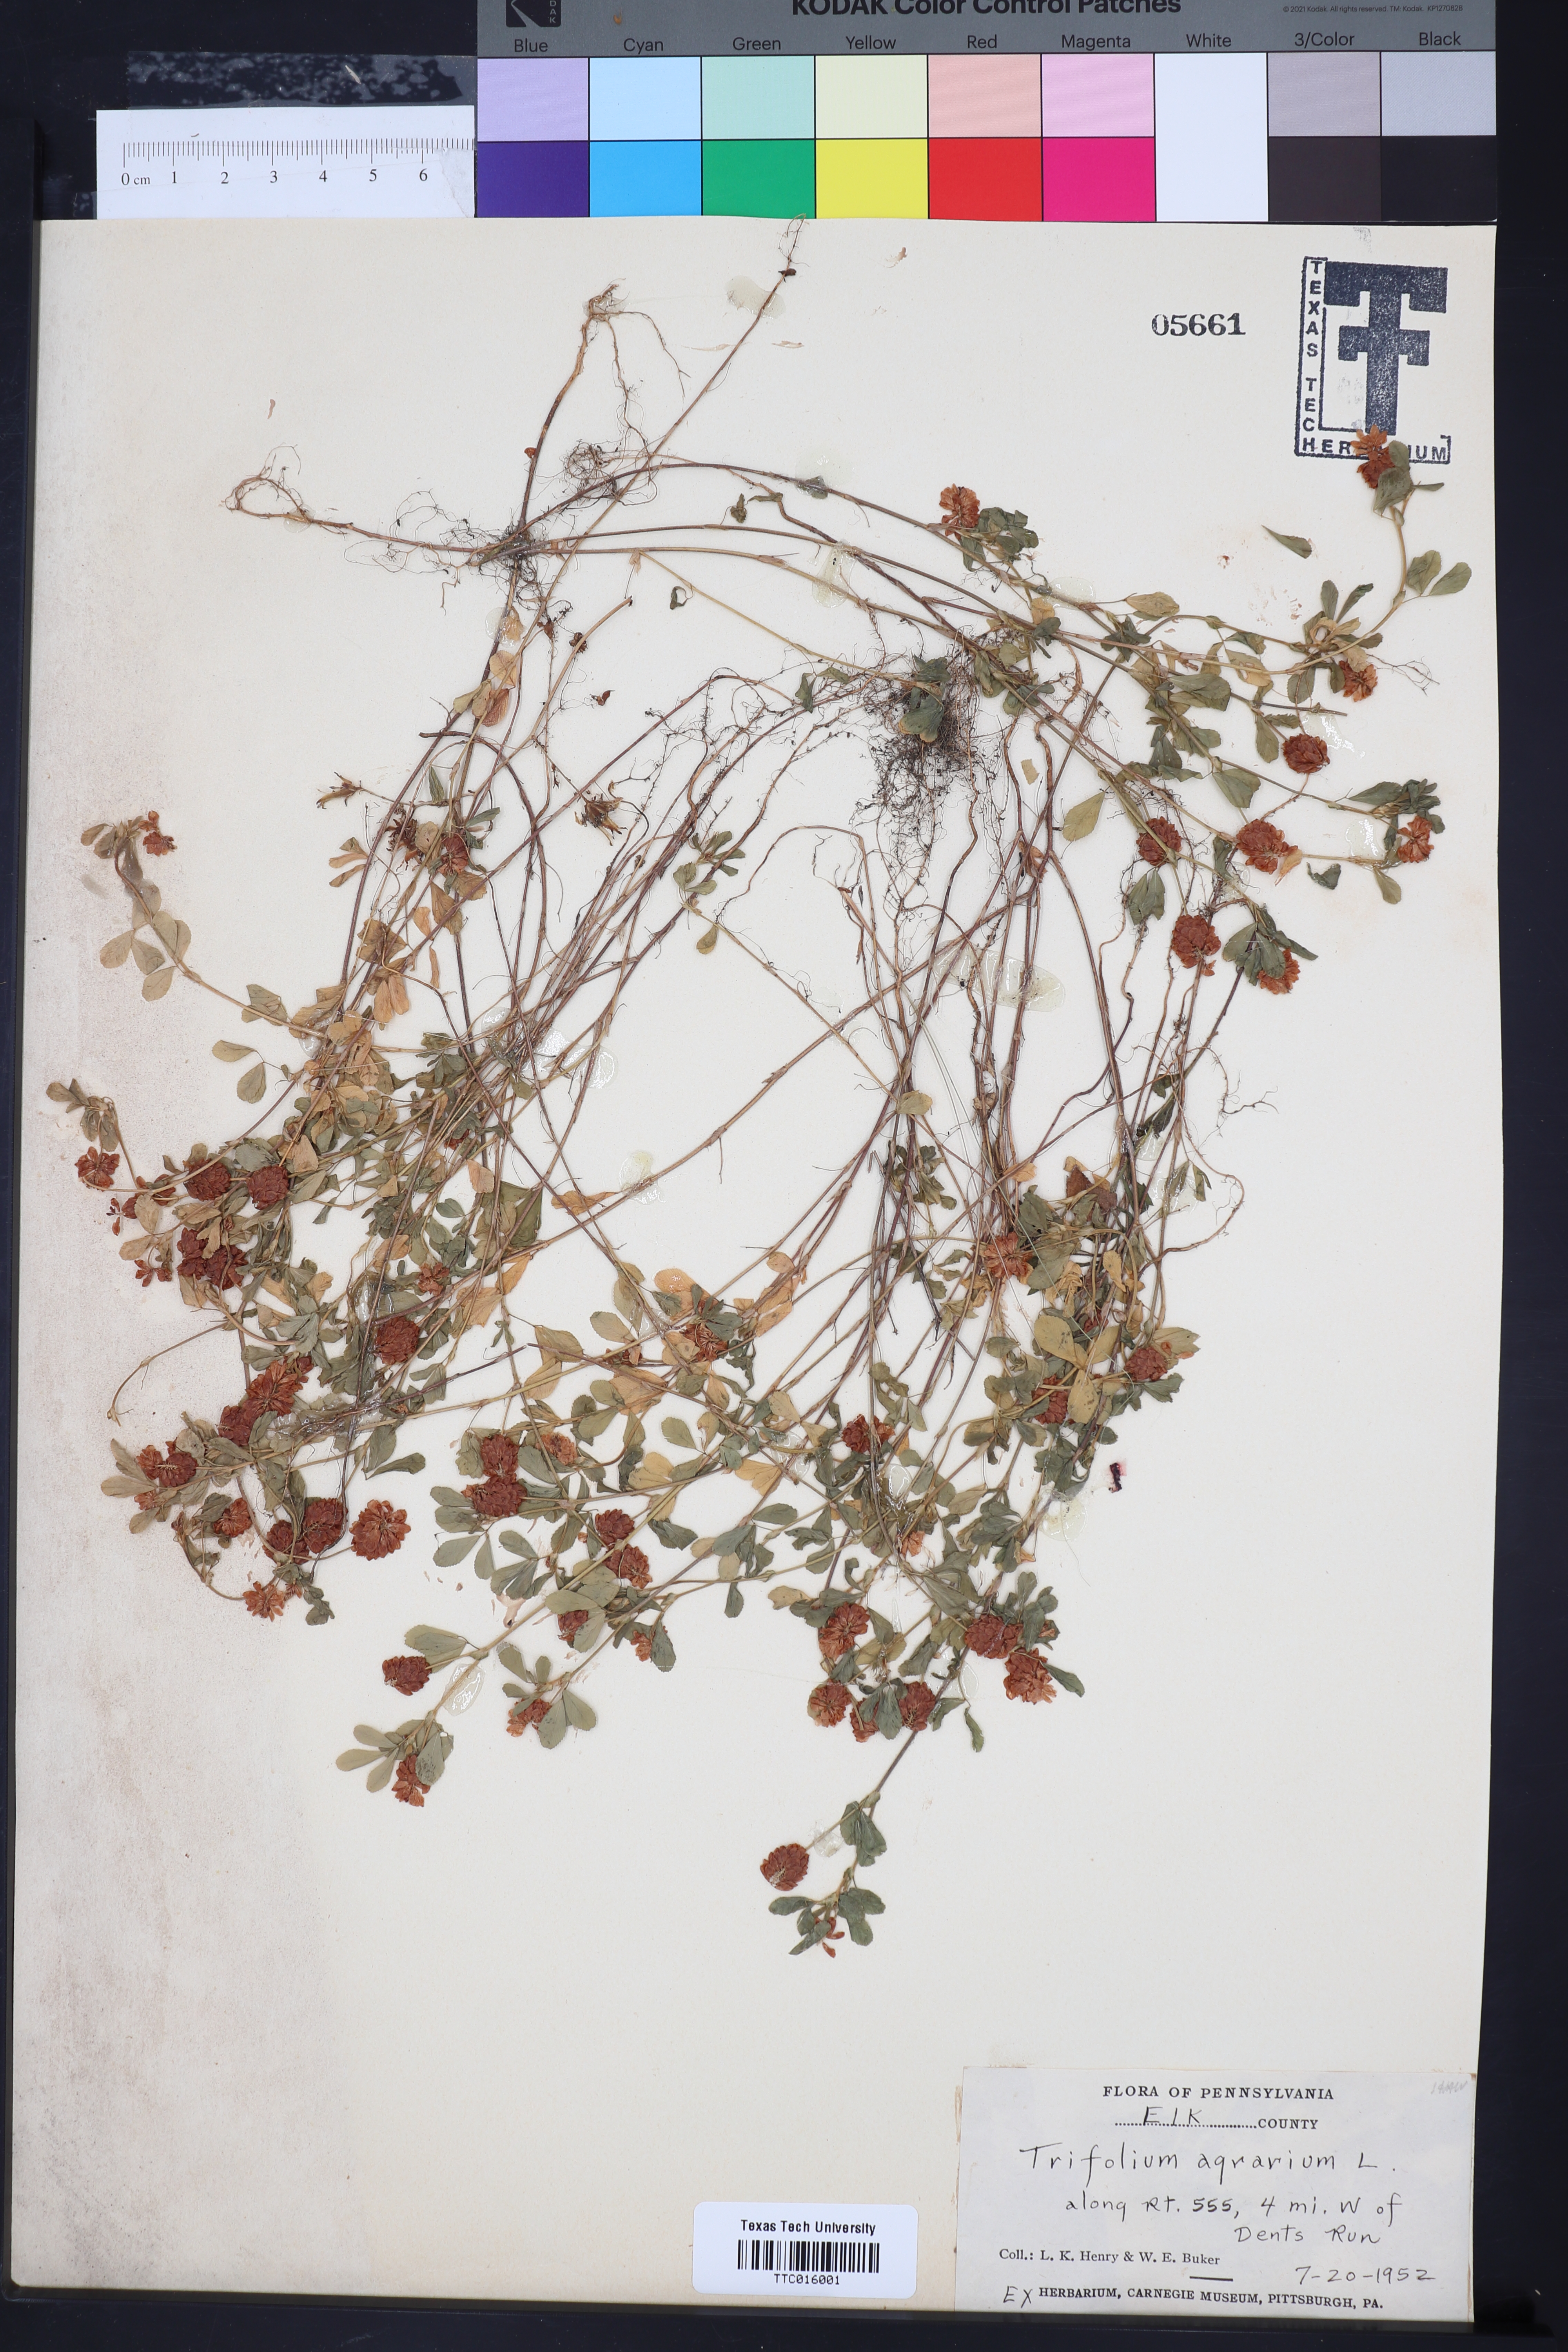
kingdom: Plantae
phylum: Tracheophyta
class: Magnoliopsida
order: Fabales
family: Fabaceae
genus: Trifolium
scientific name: Trifolium agrarium
